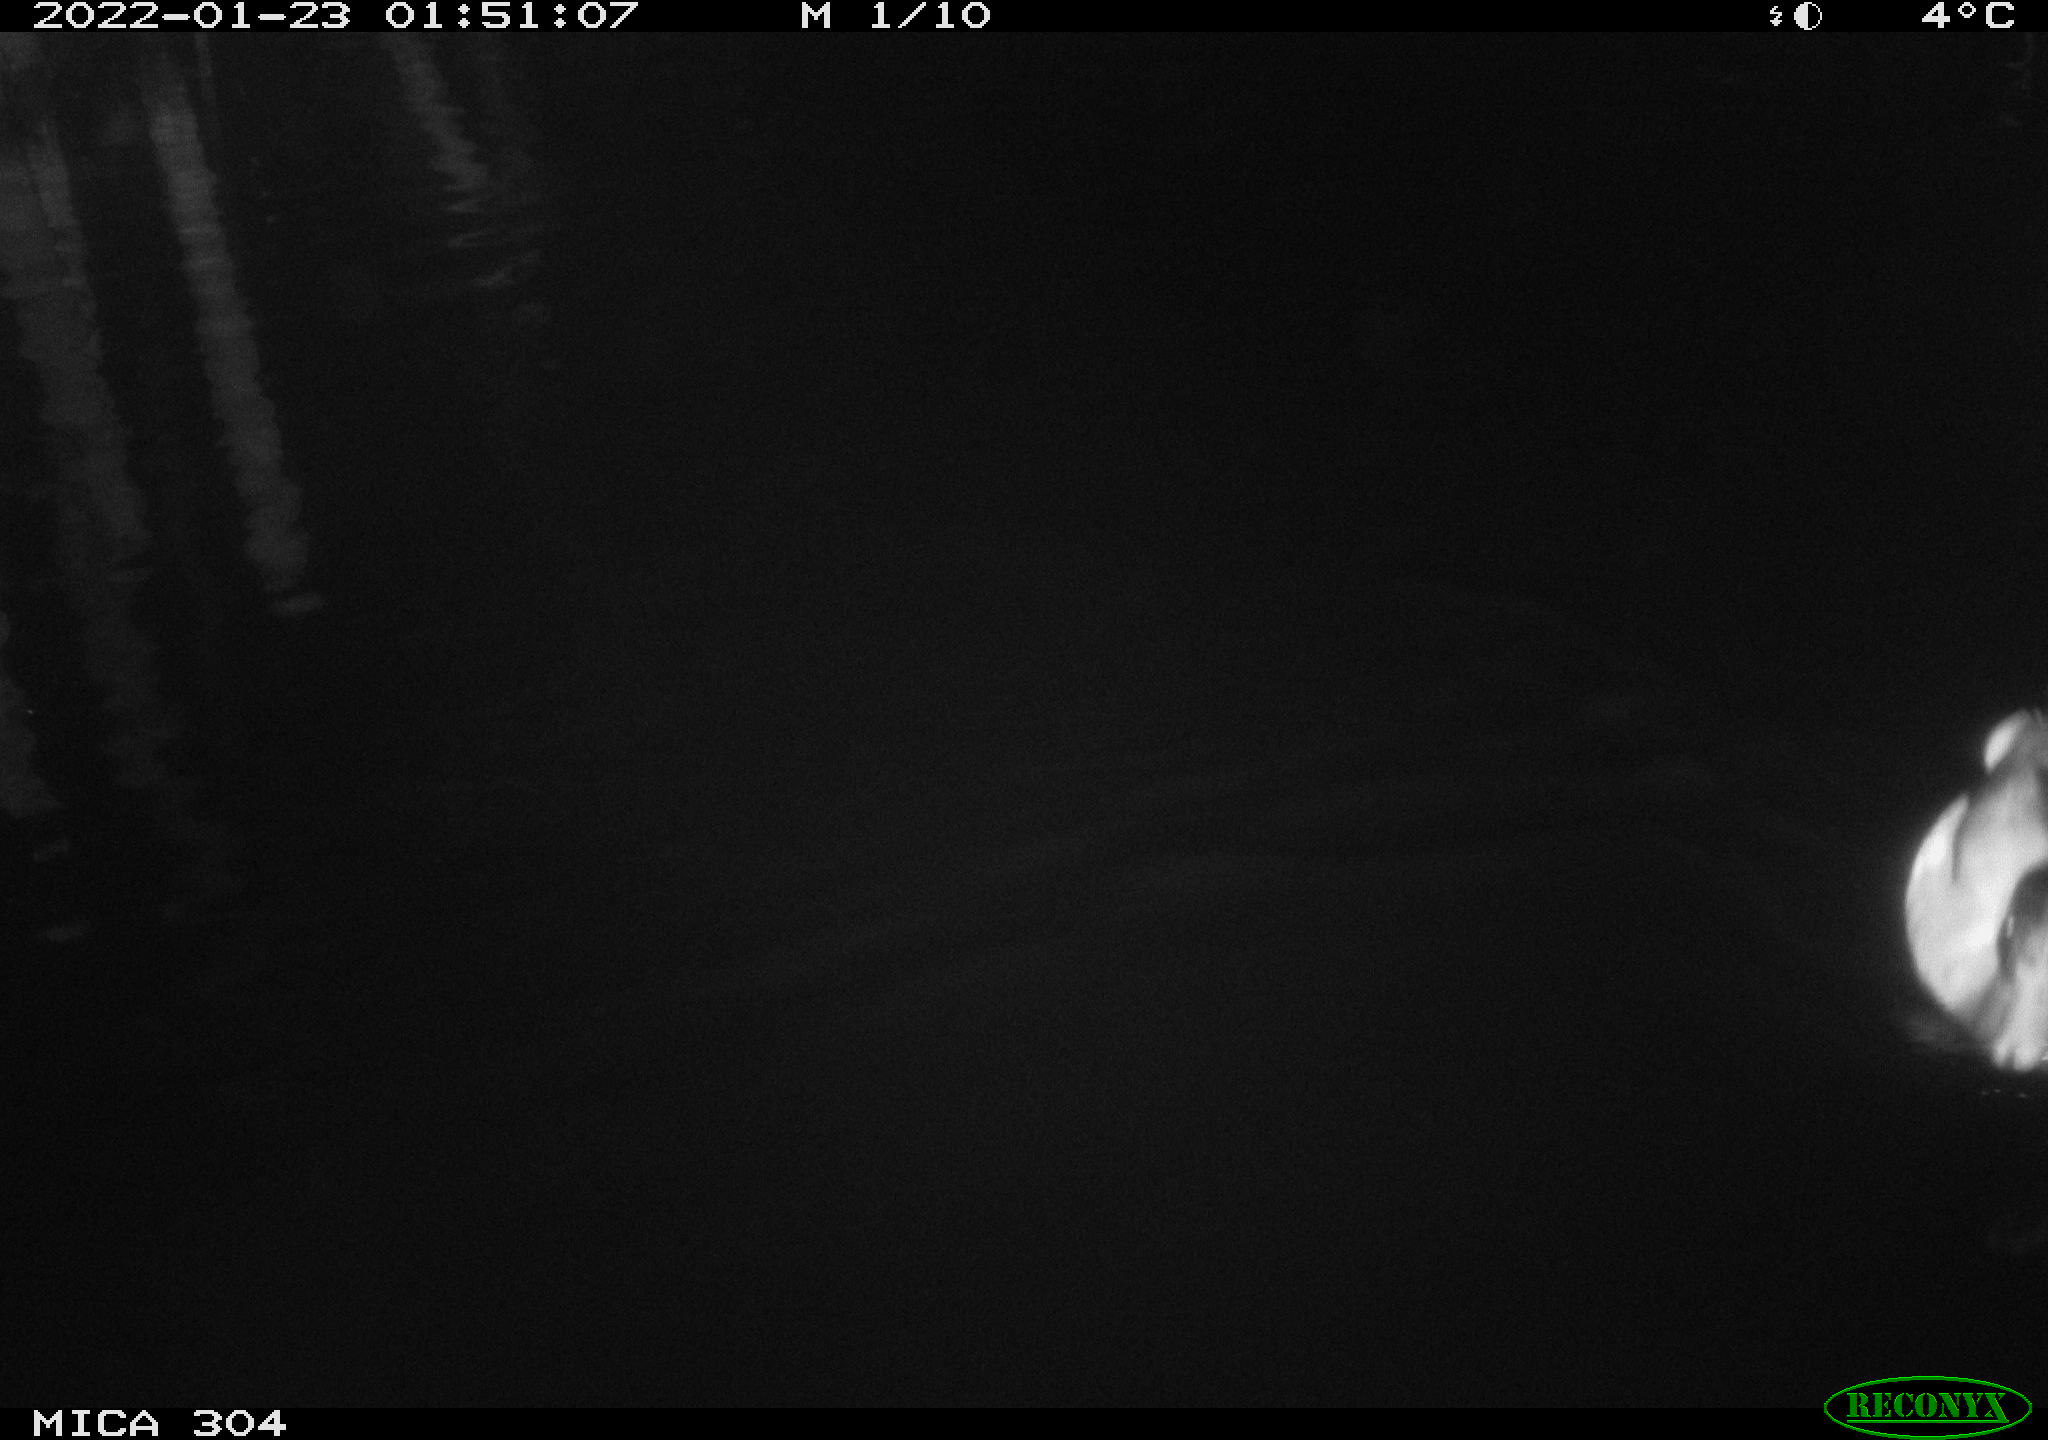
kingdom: Animalia
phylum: Chordata
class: Aves
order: Anseriformes
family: Anatidae
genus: Anas
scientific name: Anas
